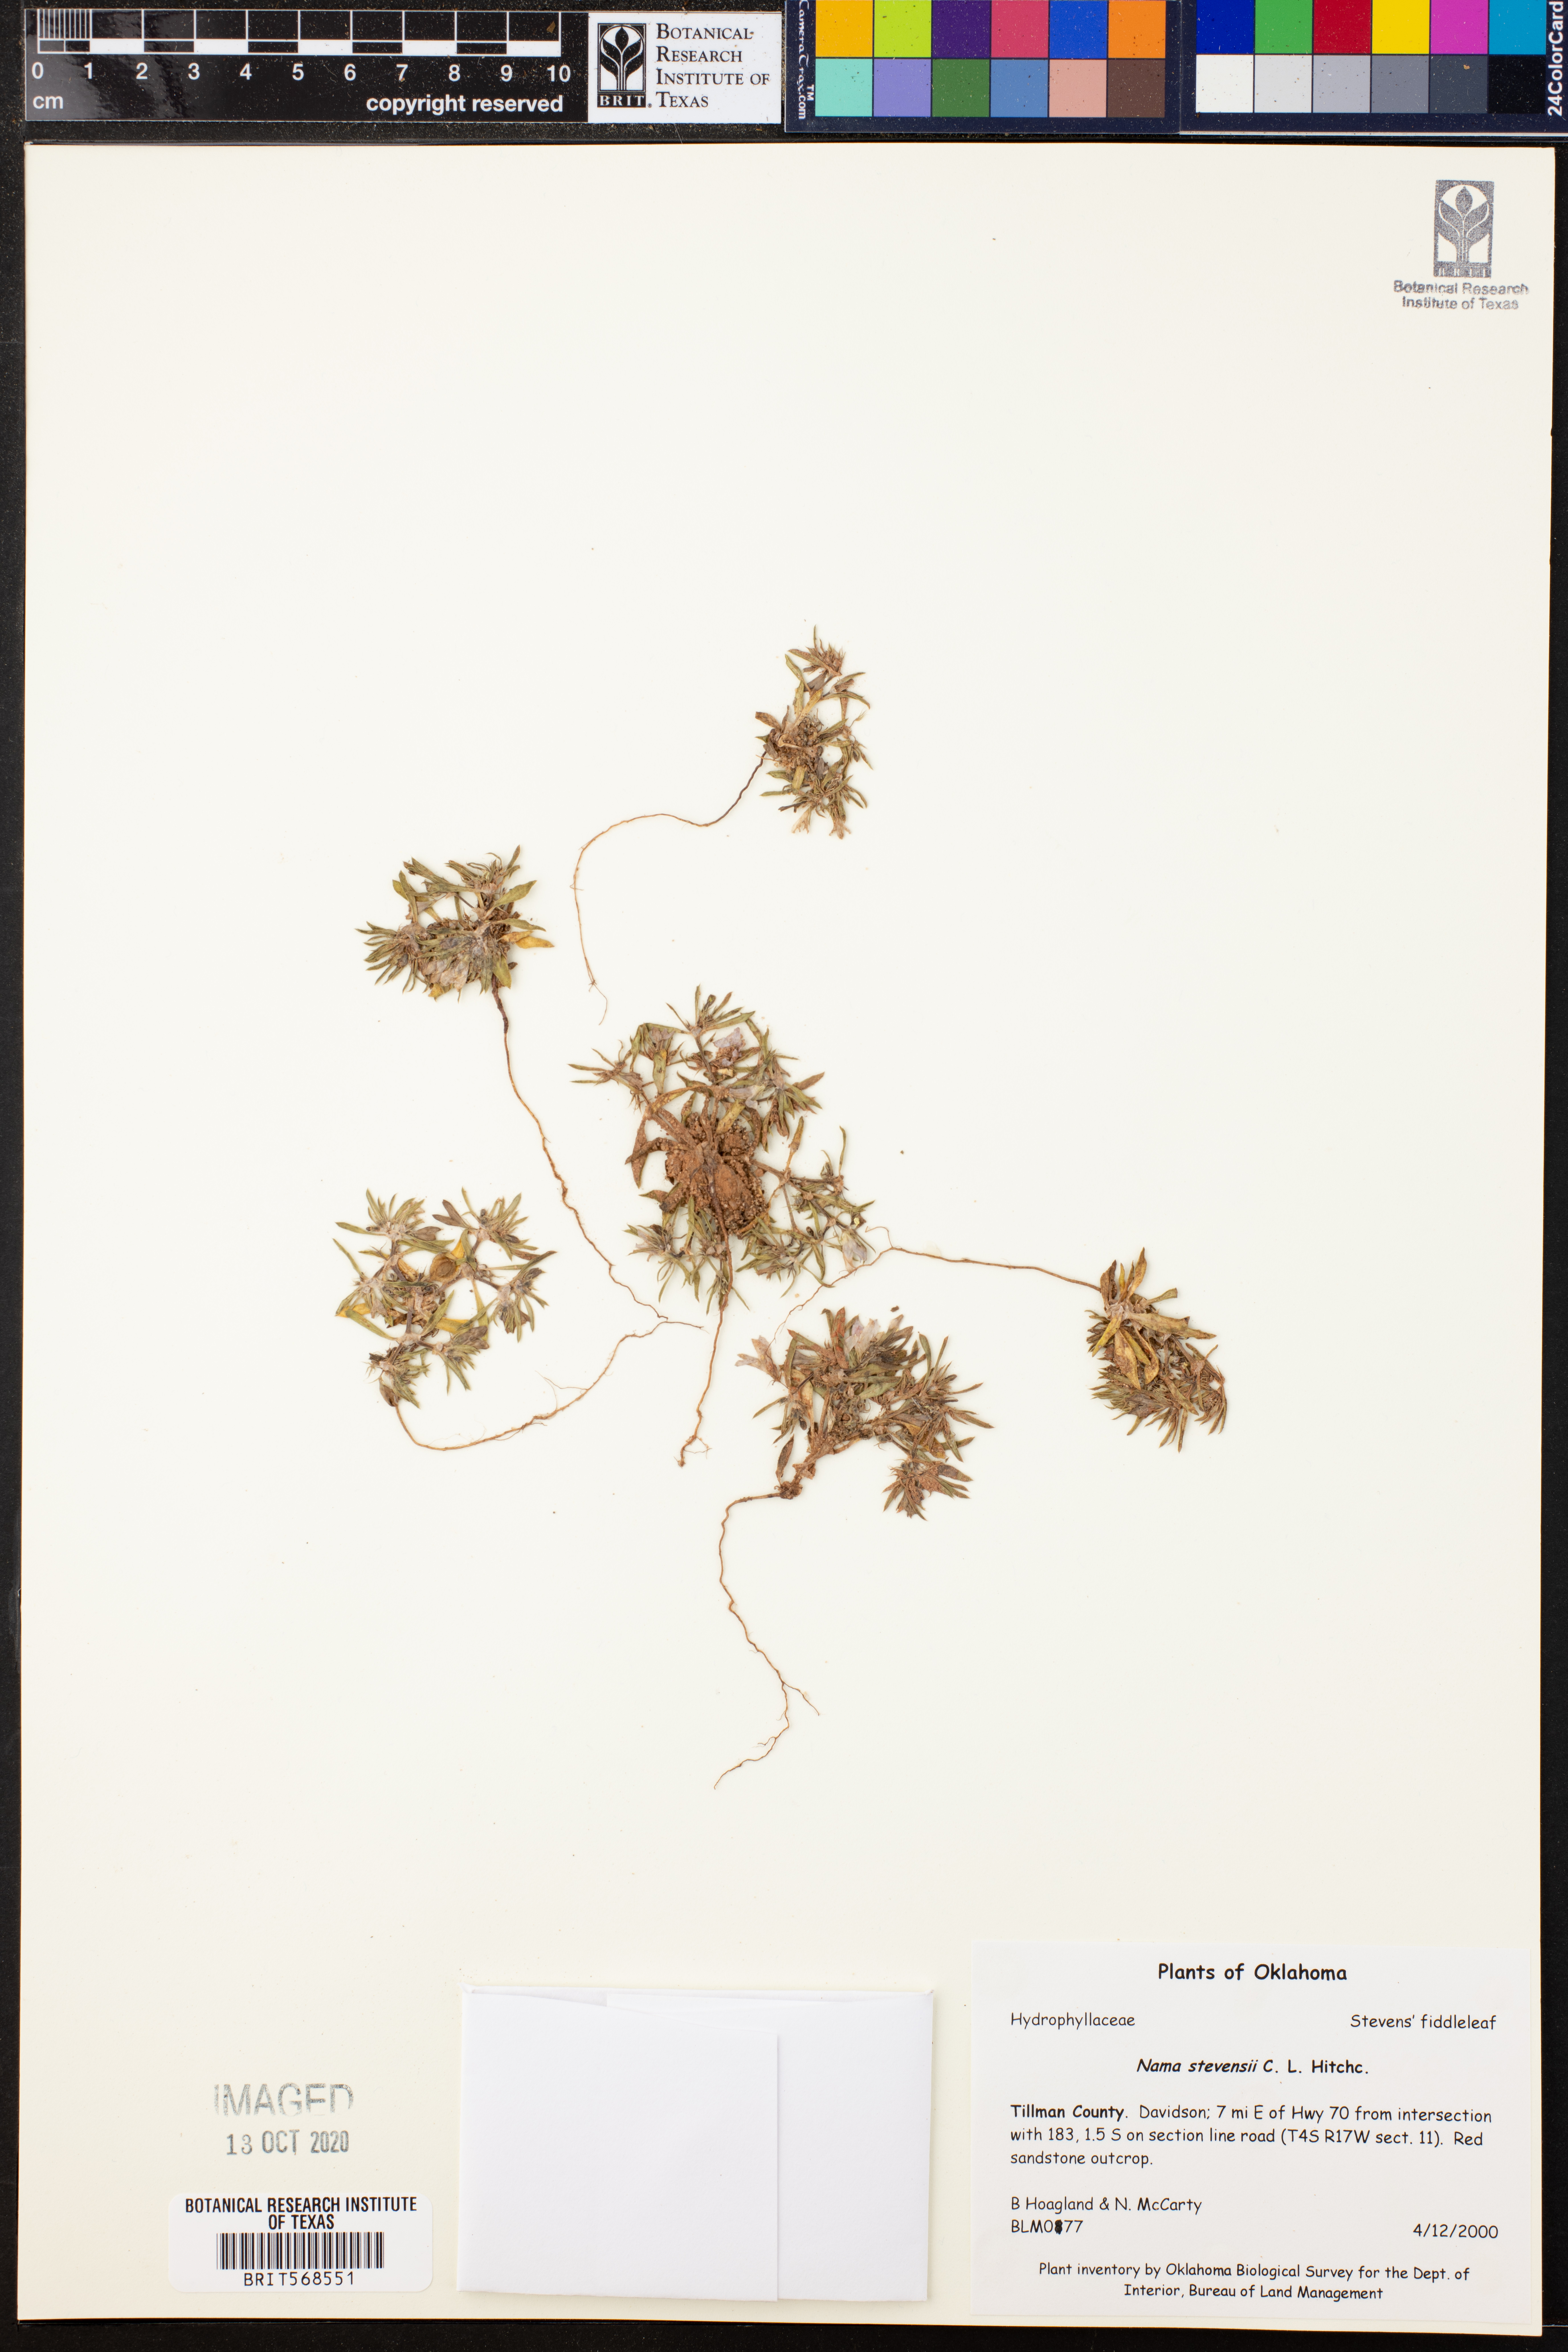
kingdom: Plantae
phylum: Tracheophyta
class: Magnoliopsida
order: Boraginales
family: Namaceae
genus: Nama
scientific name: Nama stevensii
